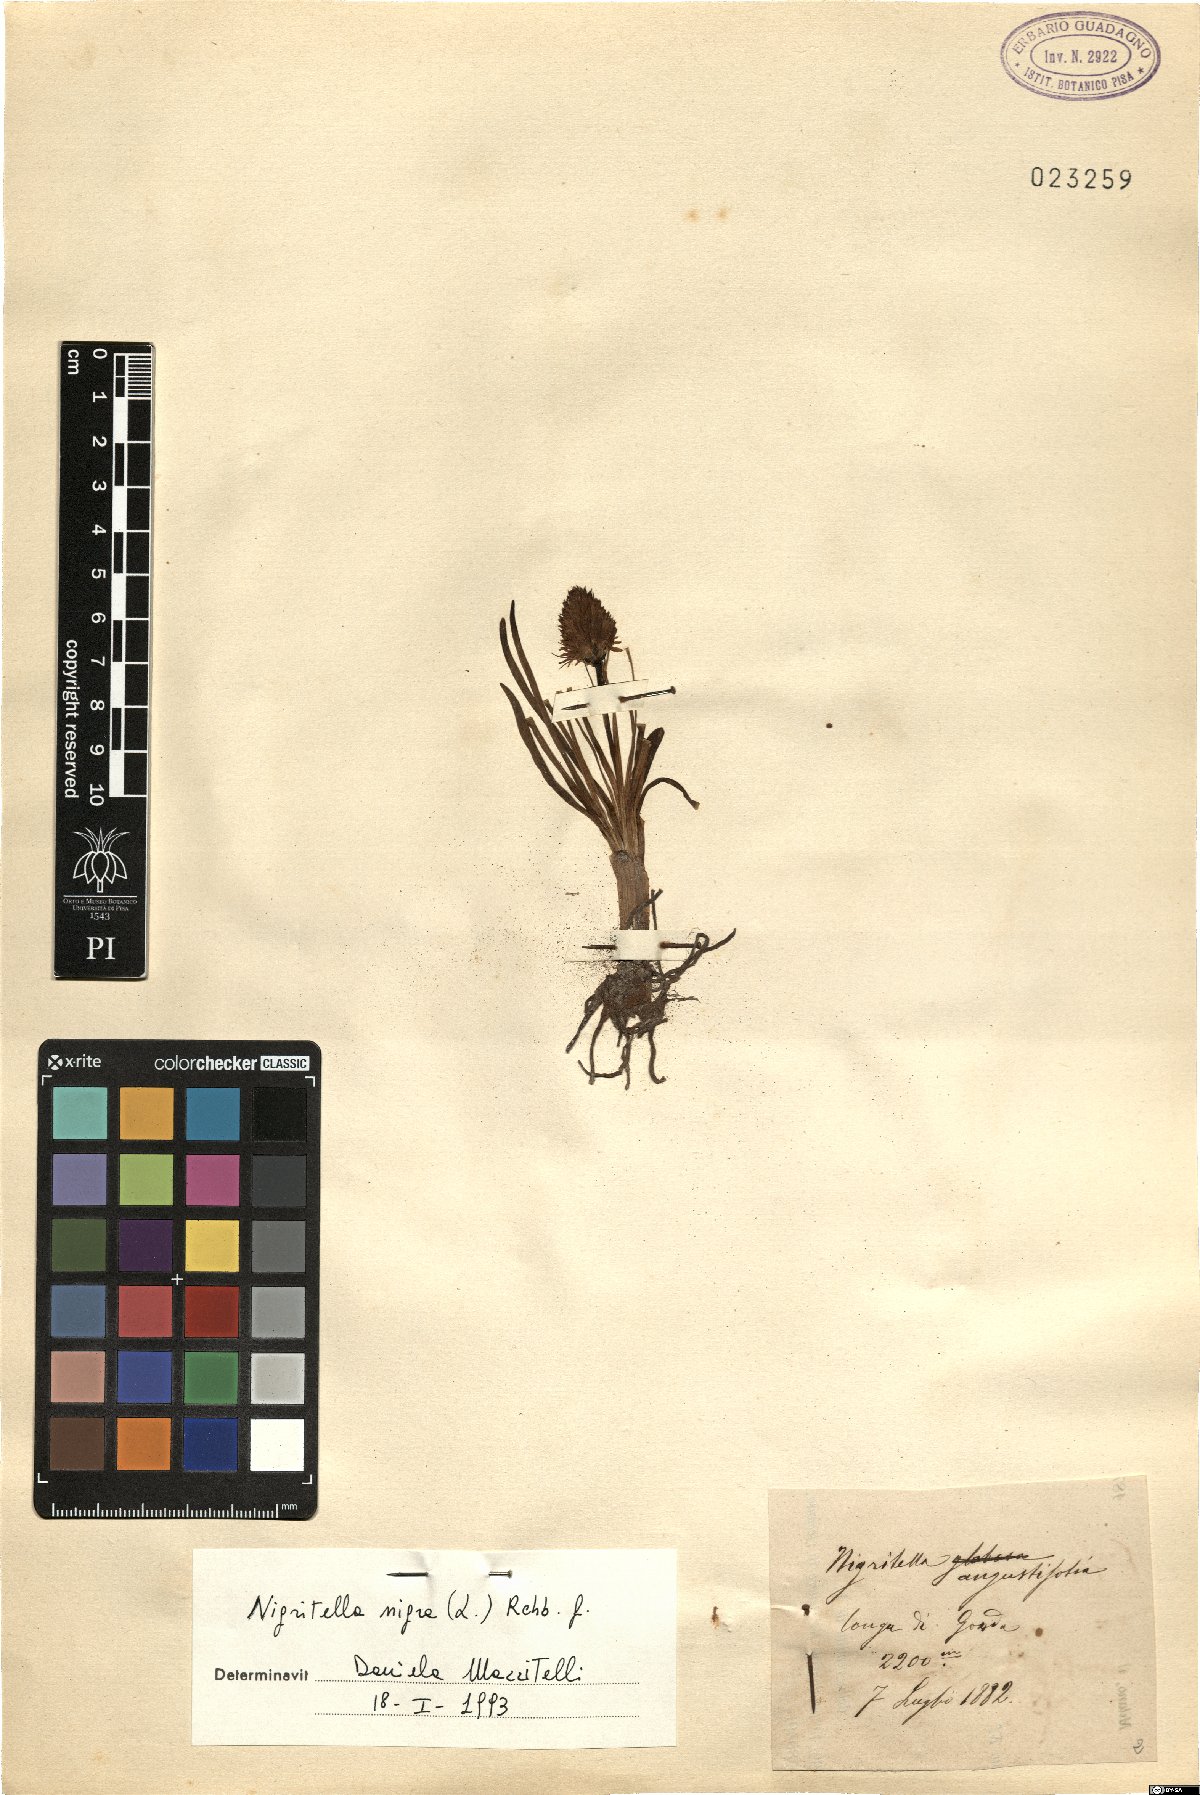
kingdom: Plantae
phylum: Tracheophyta
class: Liliopsida
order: Asparagales
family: Orchidaceae
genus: Gymnadenia
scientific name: Gymnadenia nigra
